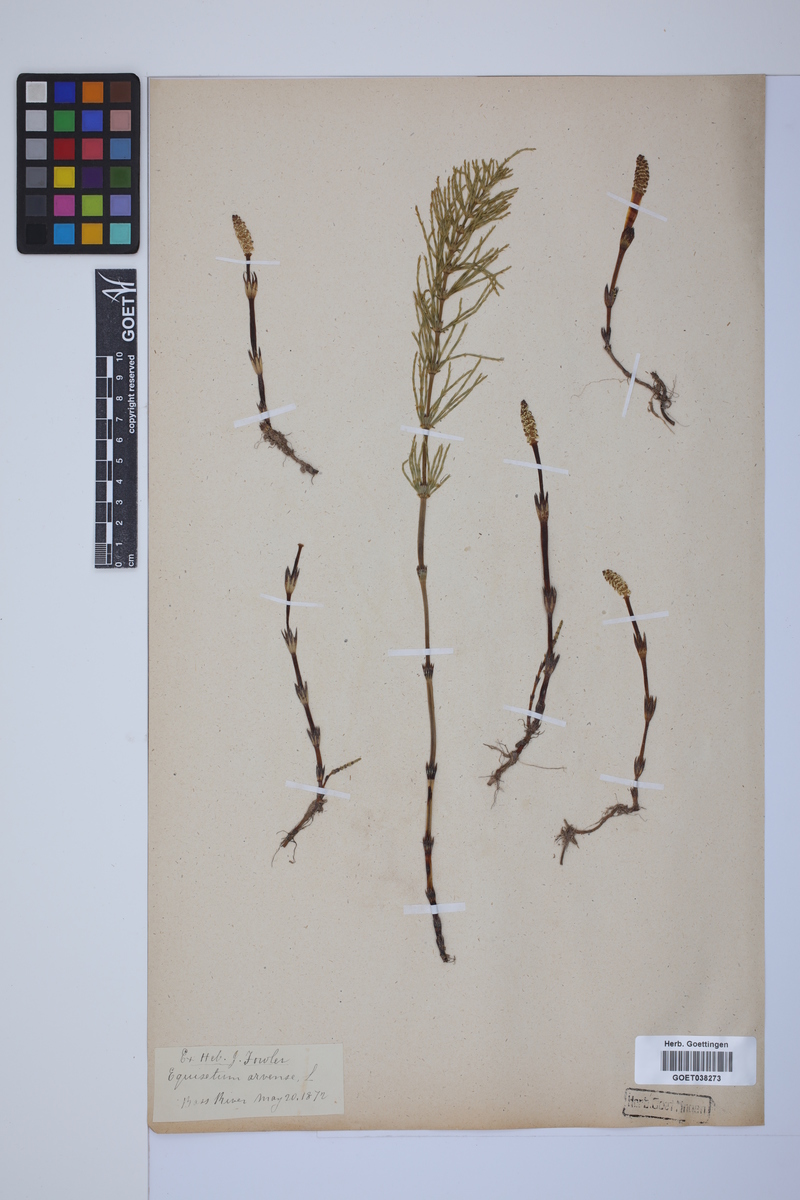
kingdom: Plantae
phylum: Tracheophyta
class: Polypodiopsida
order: Equisetales
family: Equisetaceae
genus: Equisetum
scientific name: Equisetum arvense
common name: Field horsetail
